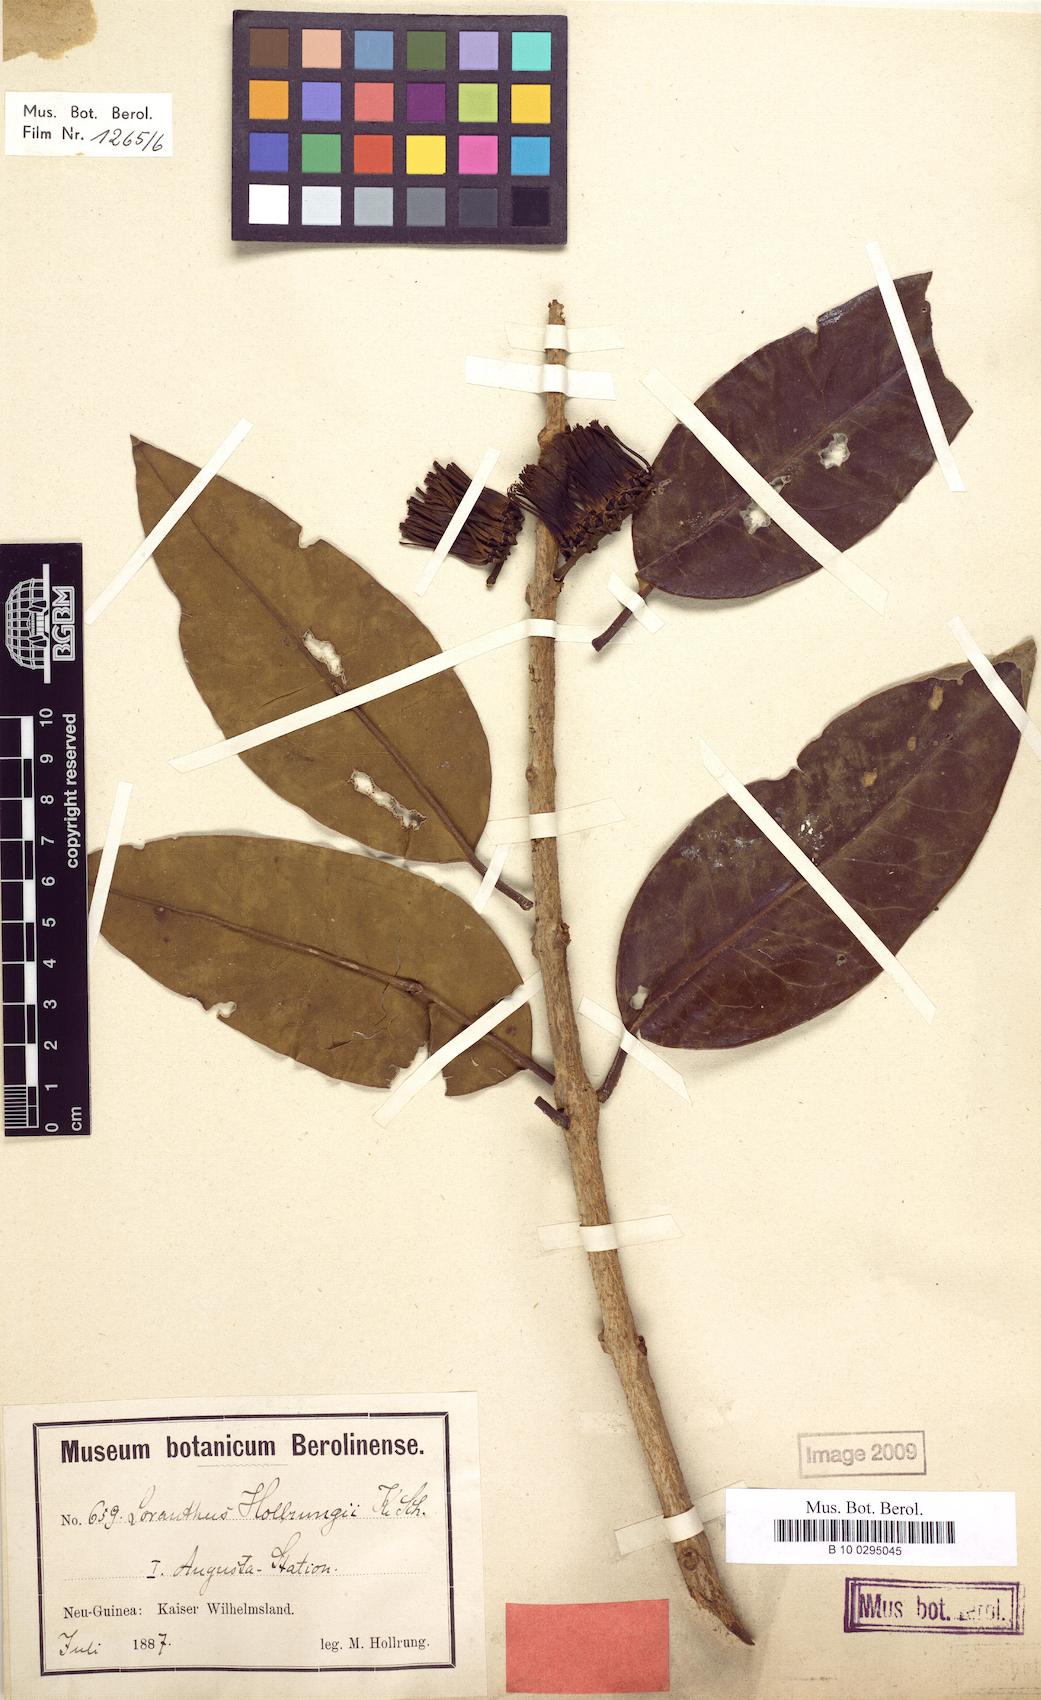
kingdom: Plantae
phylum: Tracheophyta
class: Magnoliopsida
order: Santalales
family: Loranthaceae
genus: Decaisnina
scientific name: Decaisnina hollrungii
